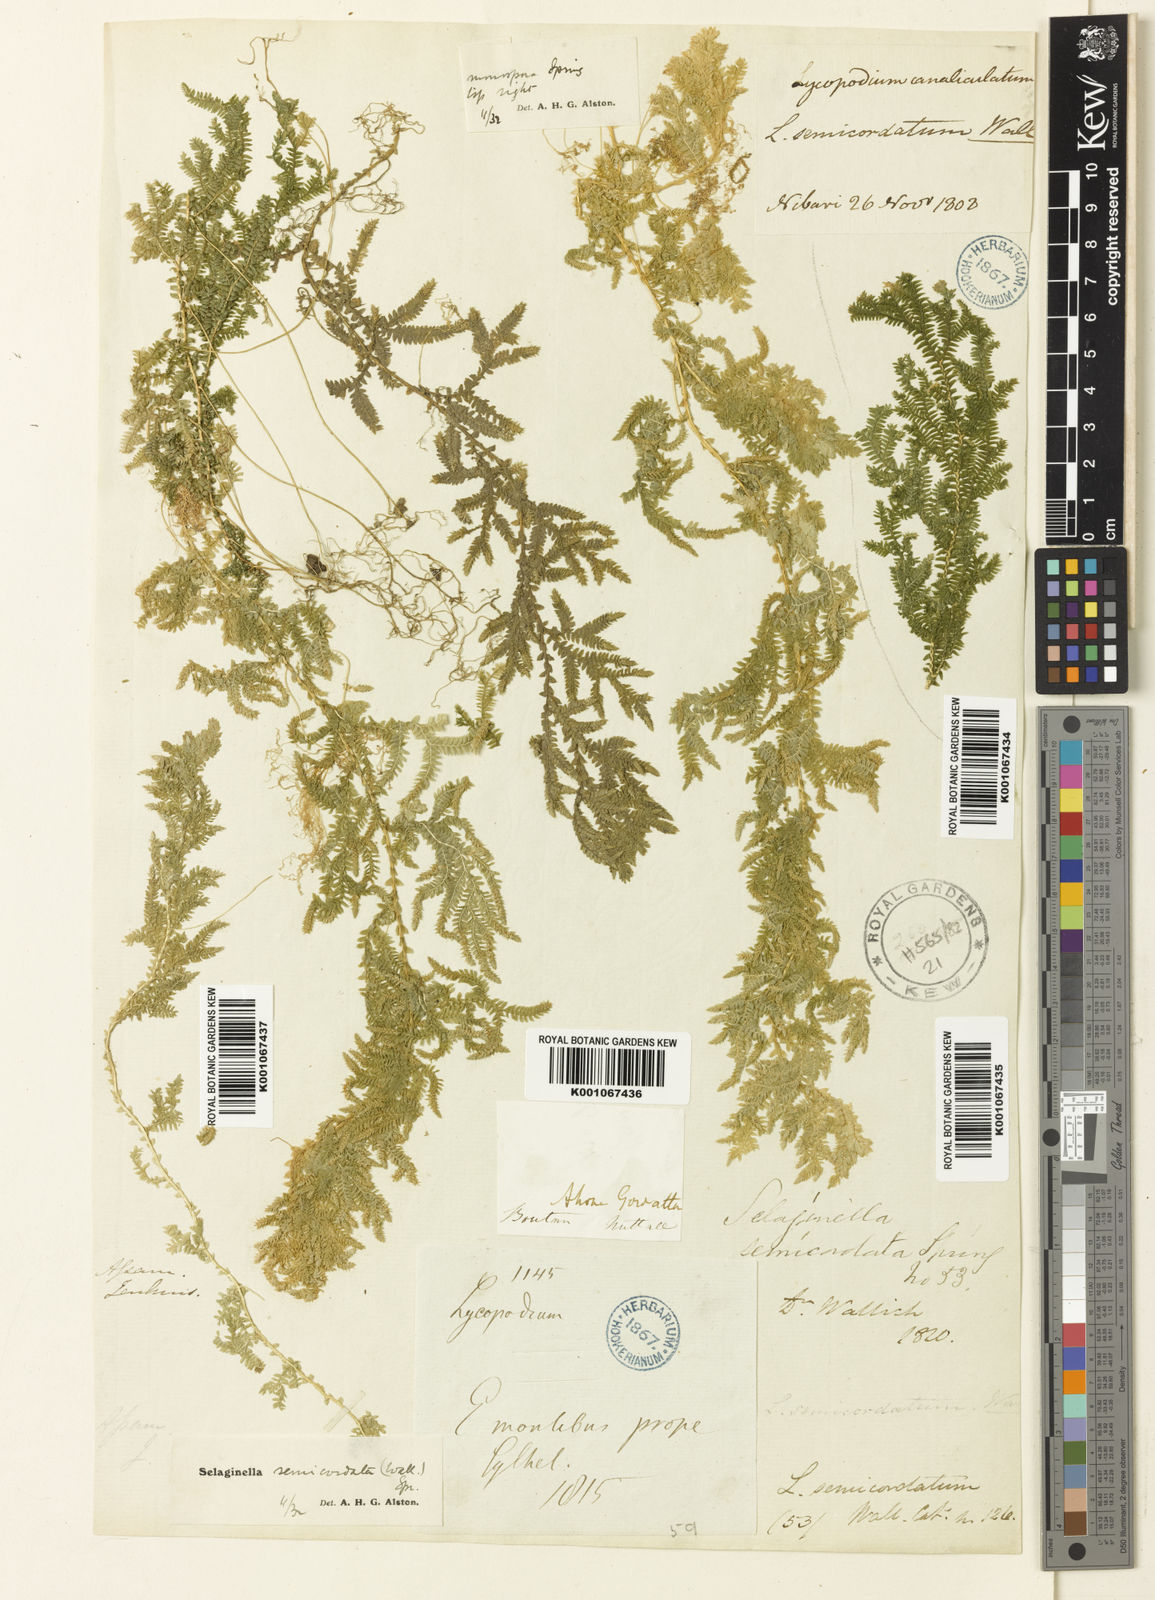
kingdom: Plantae
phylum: Tracheophyta
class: Lycopodiopsida
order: Selaginellales
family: Selaginellaceae
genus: Selaginella
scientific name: Selaginella semicordata
